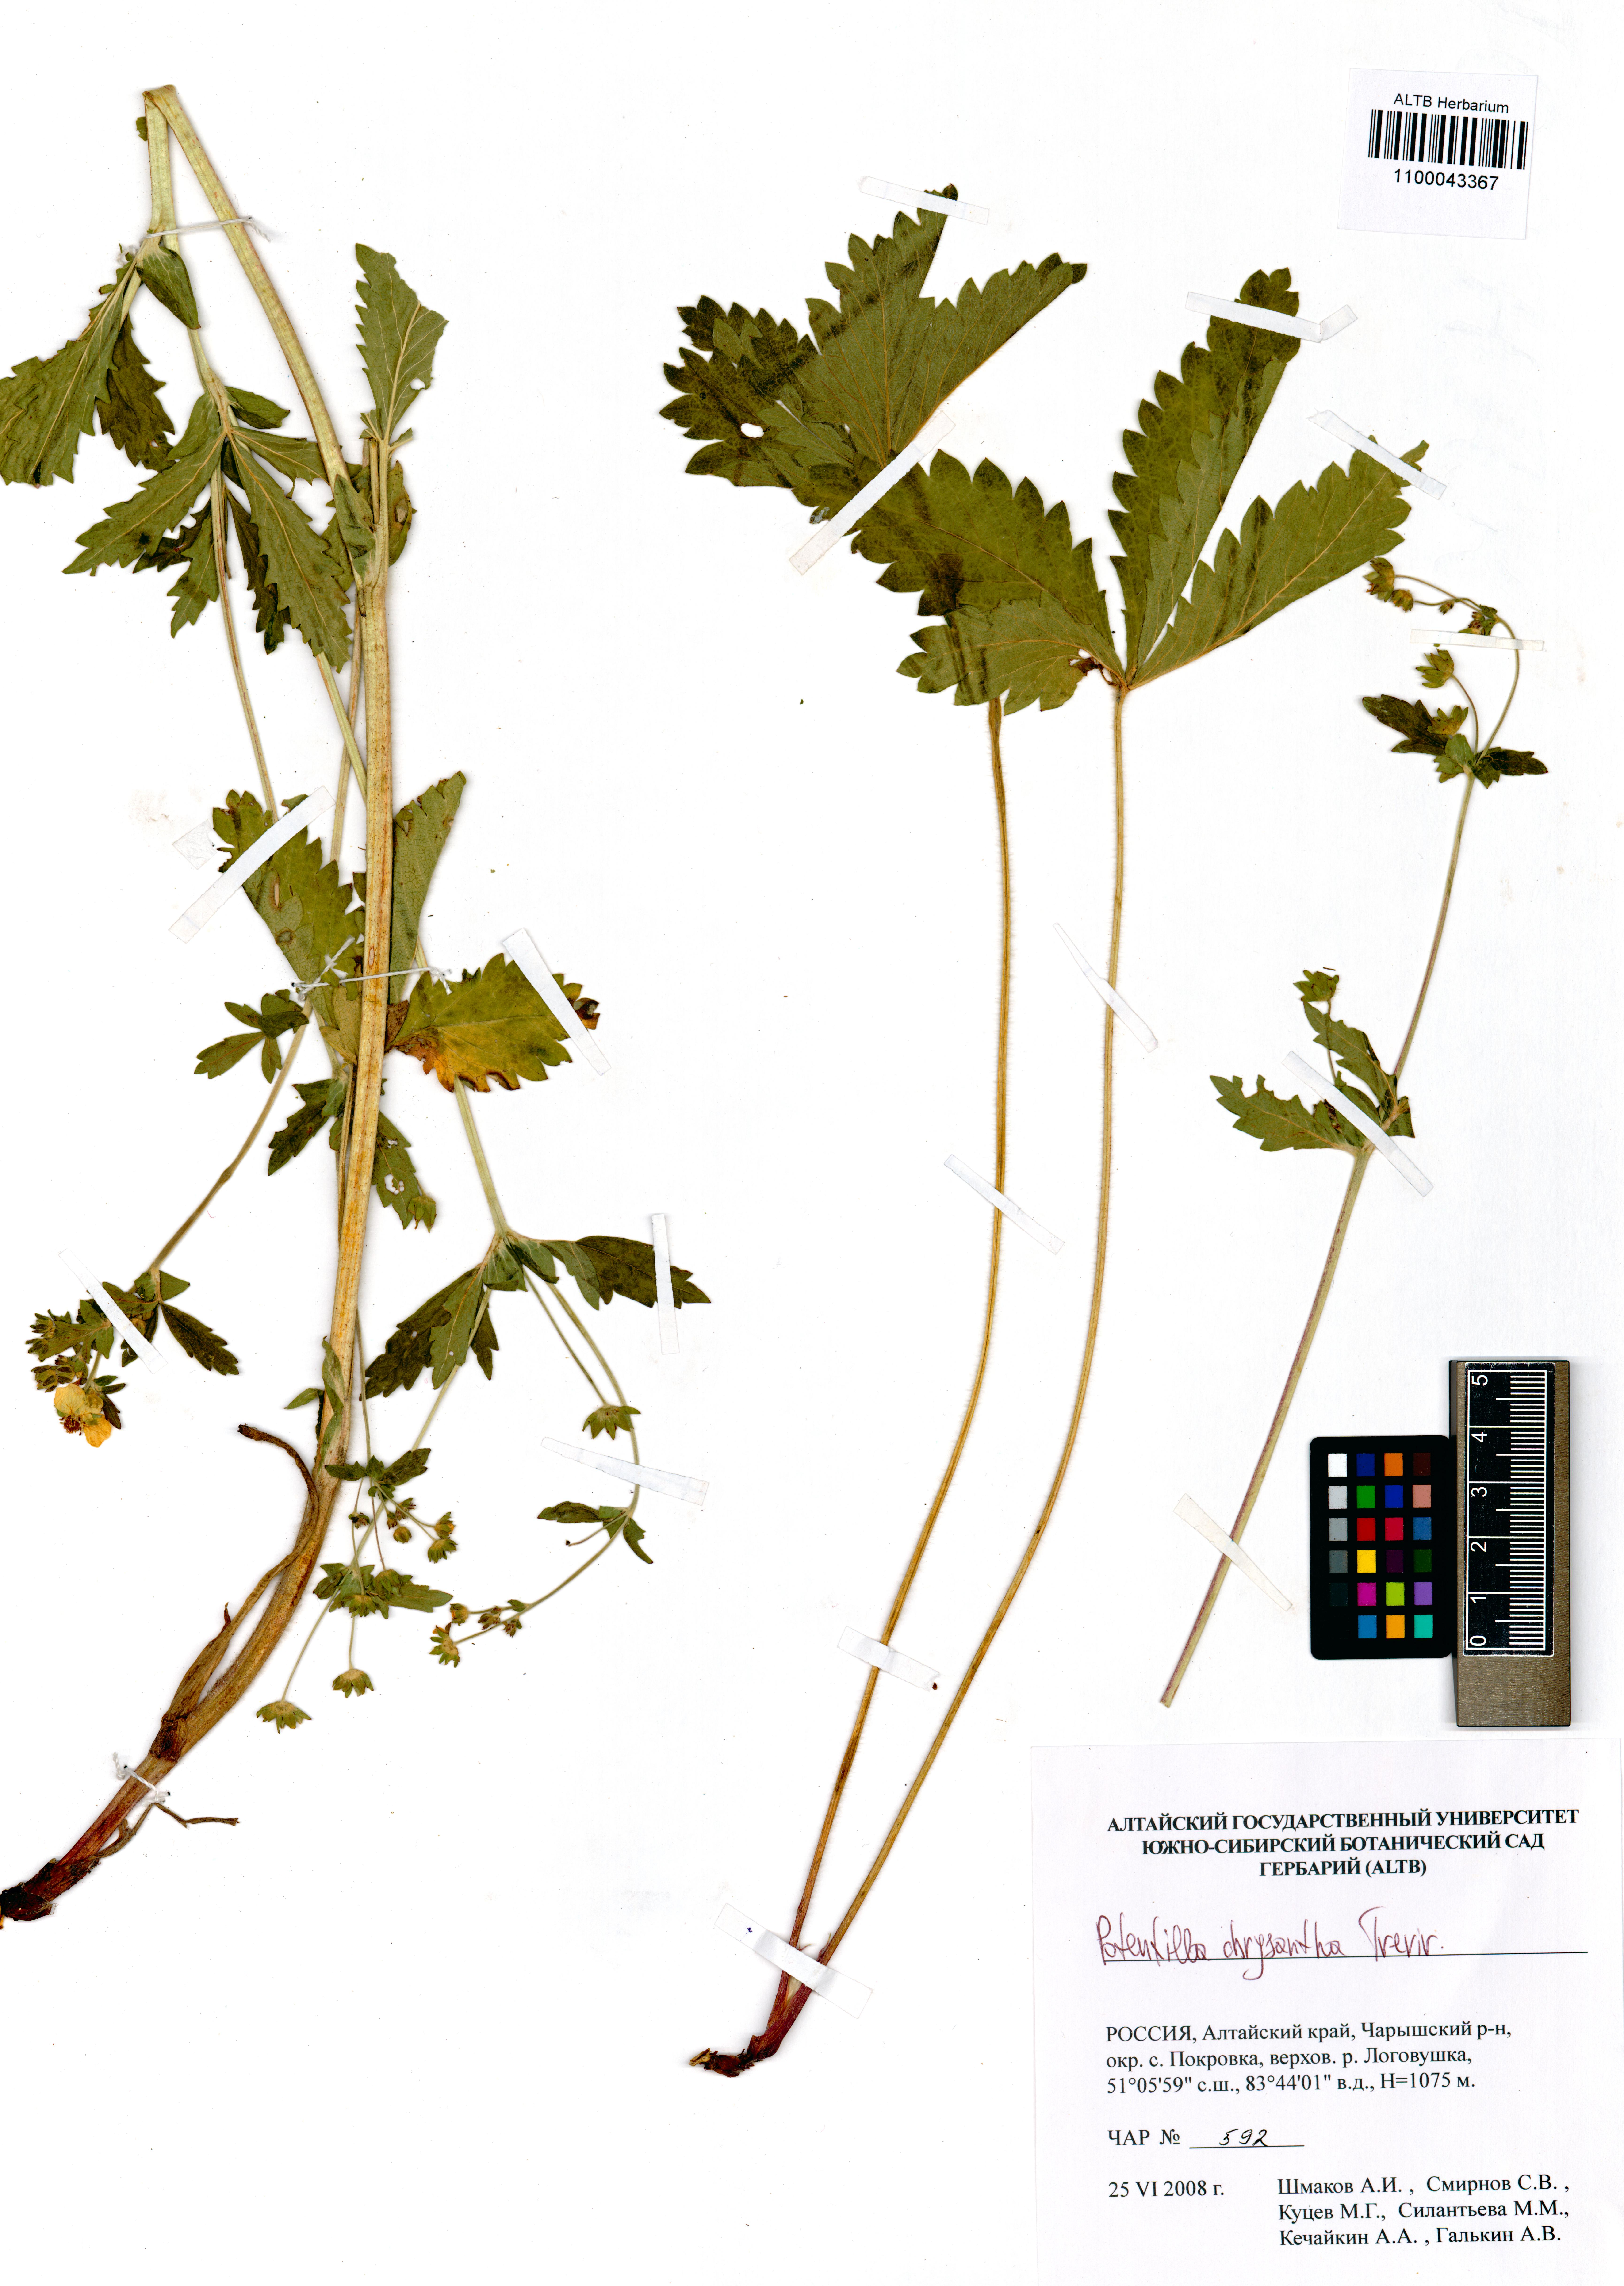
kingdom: Plantae
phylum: Tracheophyta
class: Magnoliopsida
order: Rosales
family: Rosaceae
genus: Potentilla
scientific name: Potentilla chrysantha
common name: Thuringian cinquefoil
